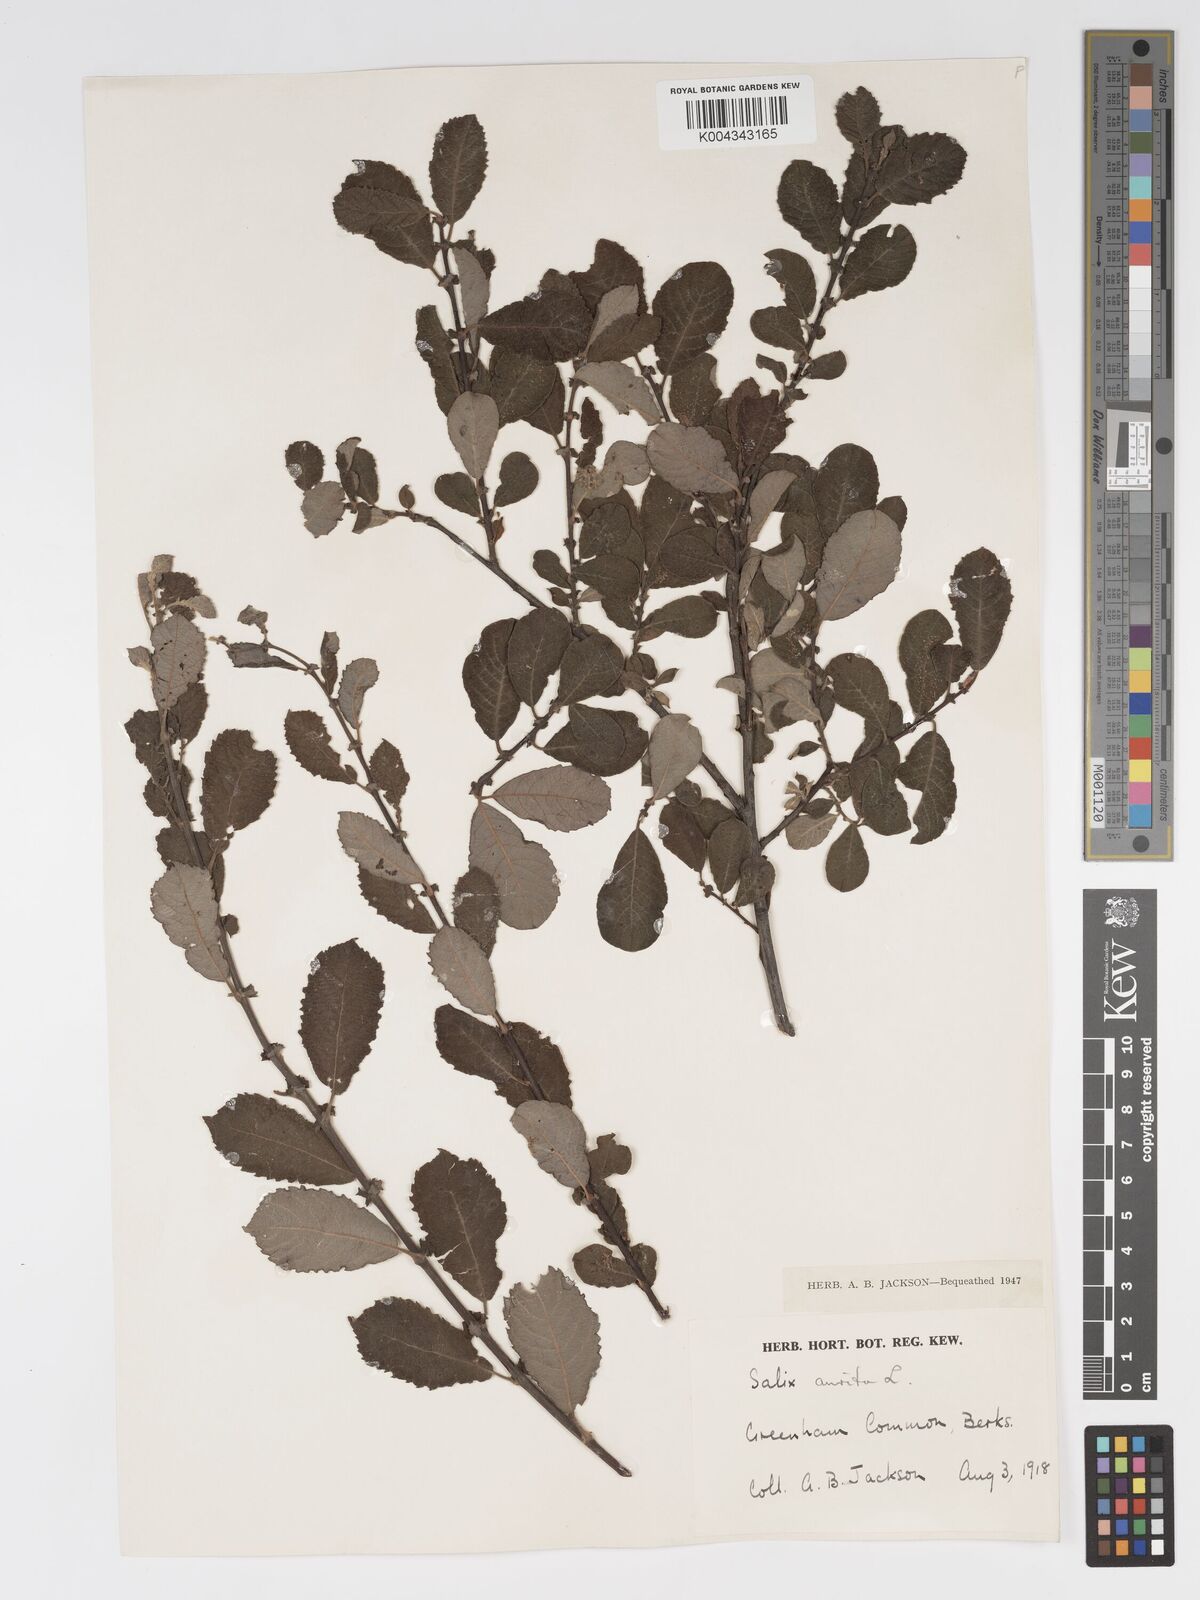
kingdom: Plantae
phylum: Tracheophyta
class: Magnoliopsida
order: Malpighiales
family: Salicaceae
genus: Salix
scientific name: Salix aurita
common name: Eared willow
